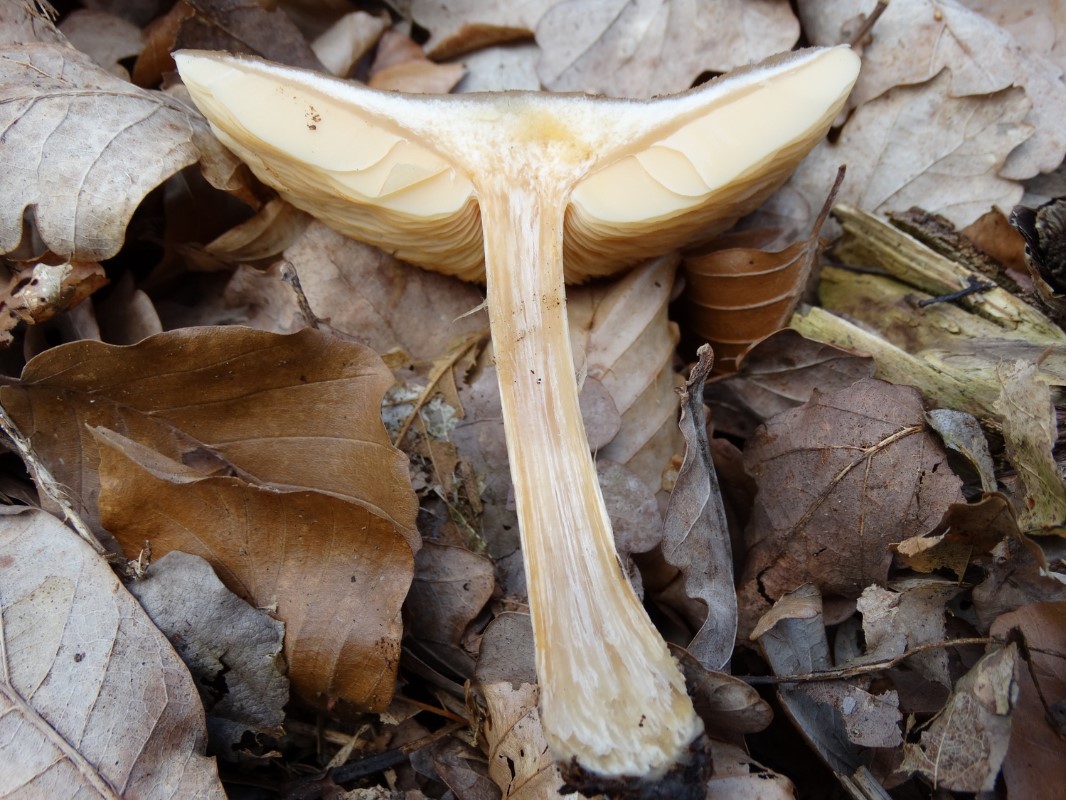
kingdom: Fungi
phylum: Basidiomycota
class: Agaricomycetes
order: Agaricales
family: Tricholomataceae
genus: Melanoleuca
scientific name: Melanoleuca cognata
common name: gyldengrå munkehat
